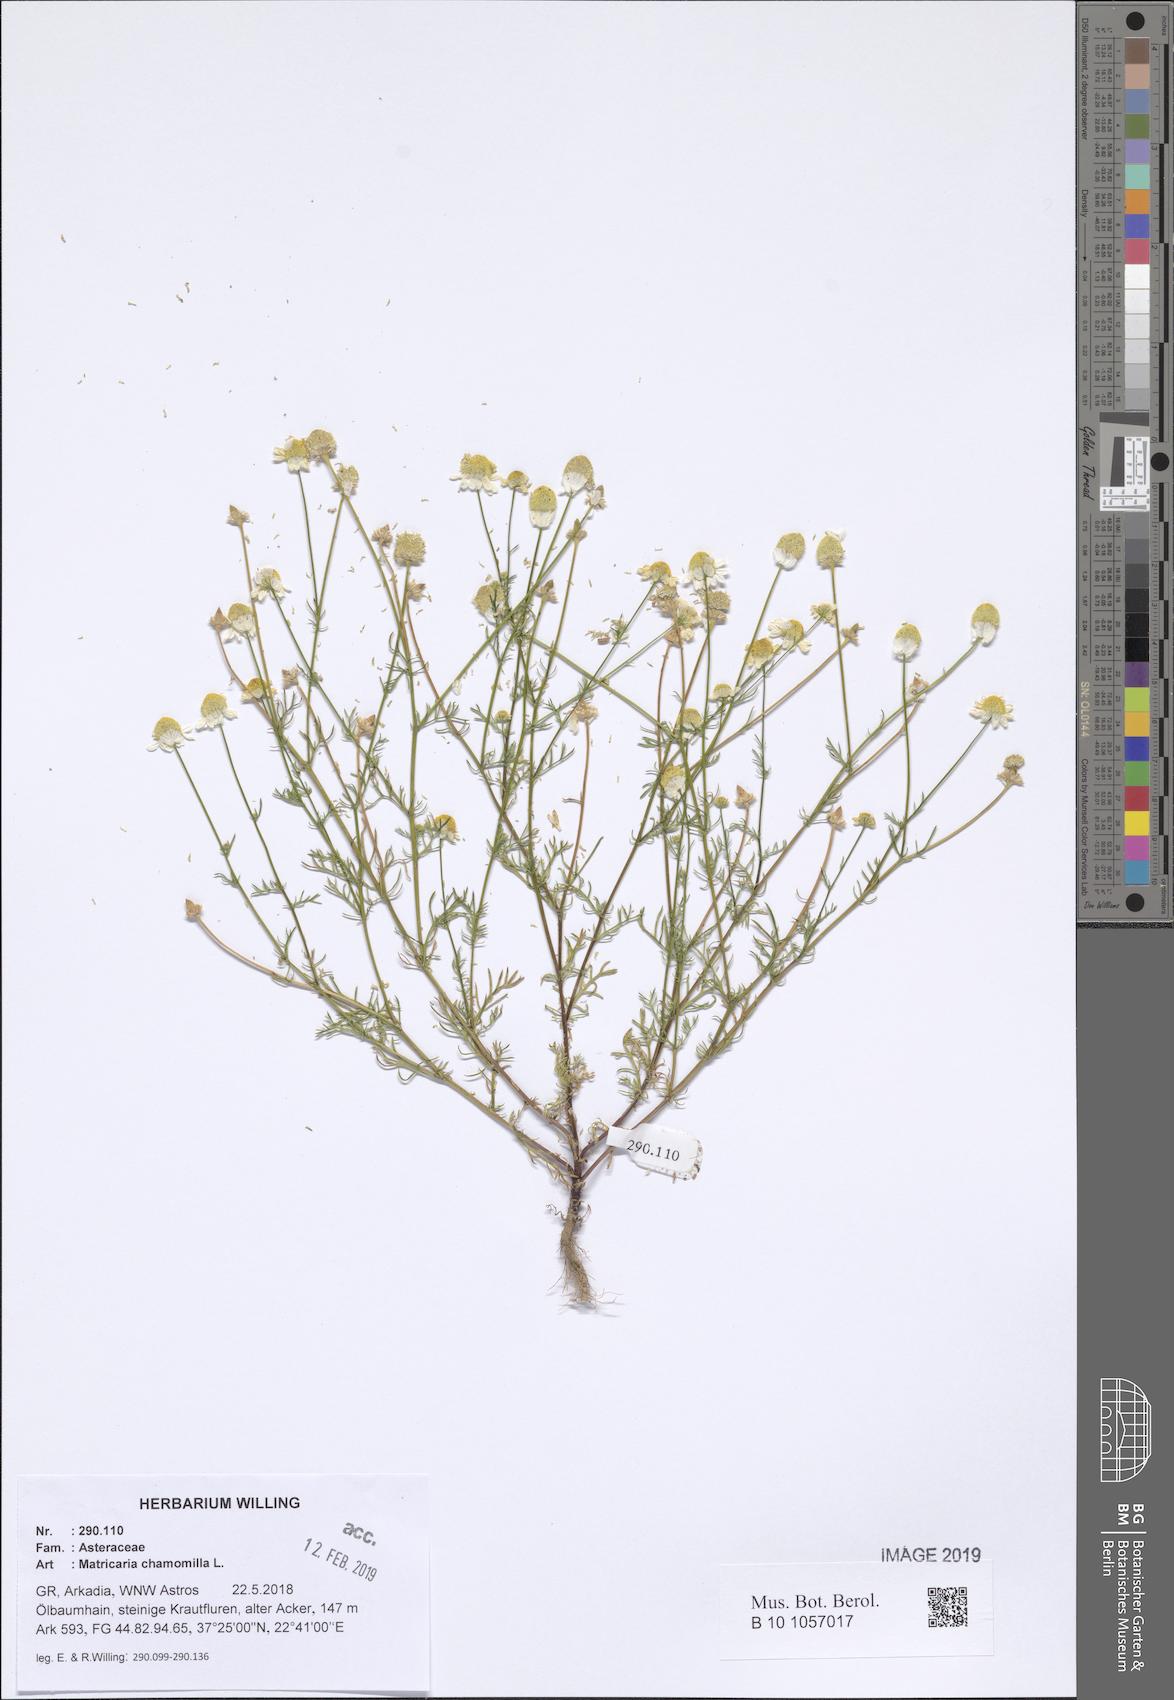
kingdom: Plantae
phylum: Tracheophyta
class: Magnoliopsida
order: Asterales
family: Asteraceae
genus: Matricaria
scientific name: Matricaria chamomilla
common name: Scented mayweed
